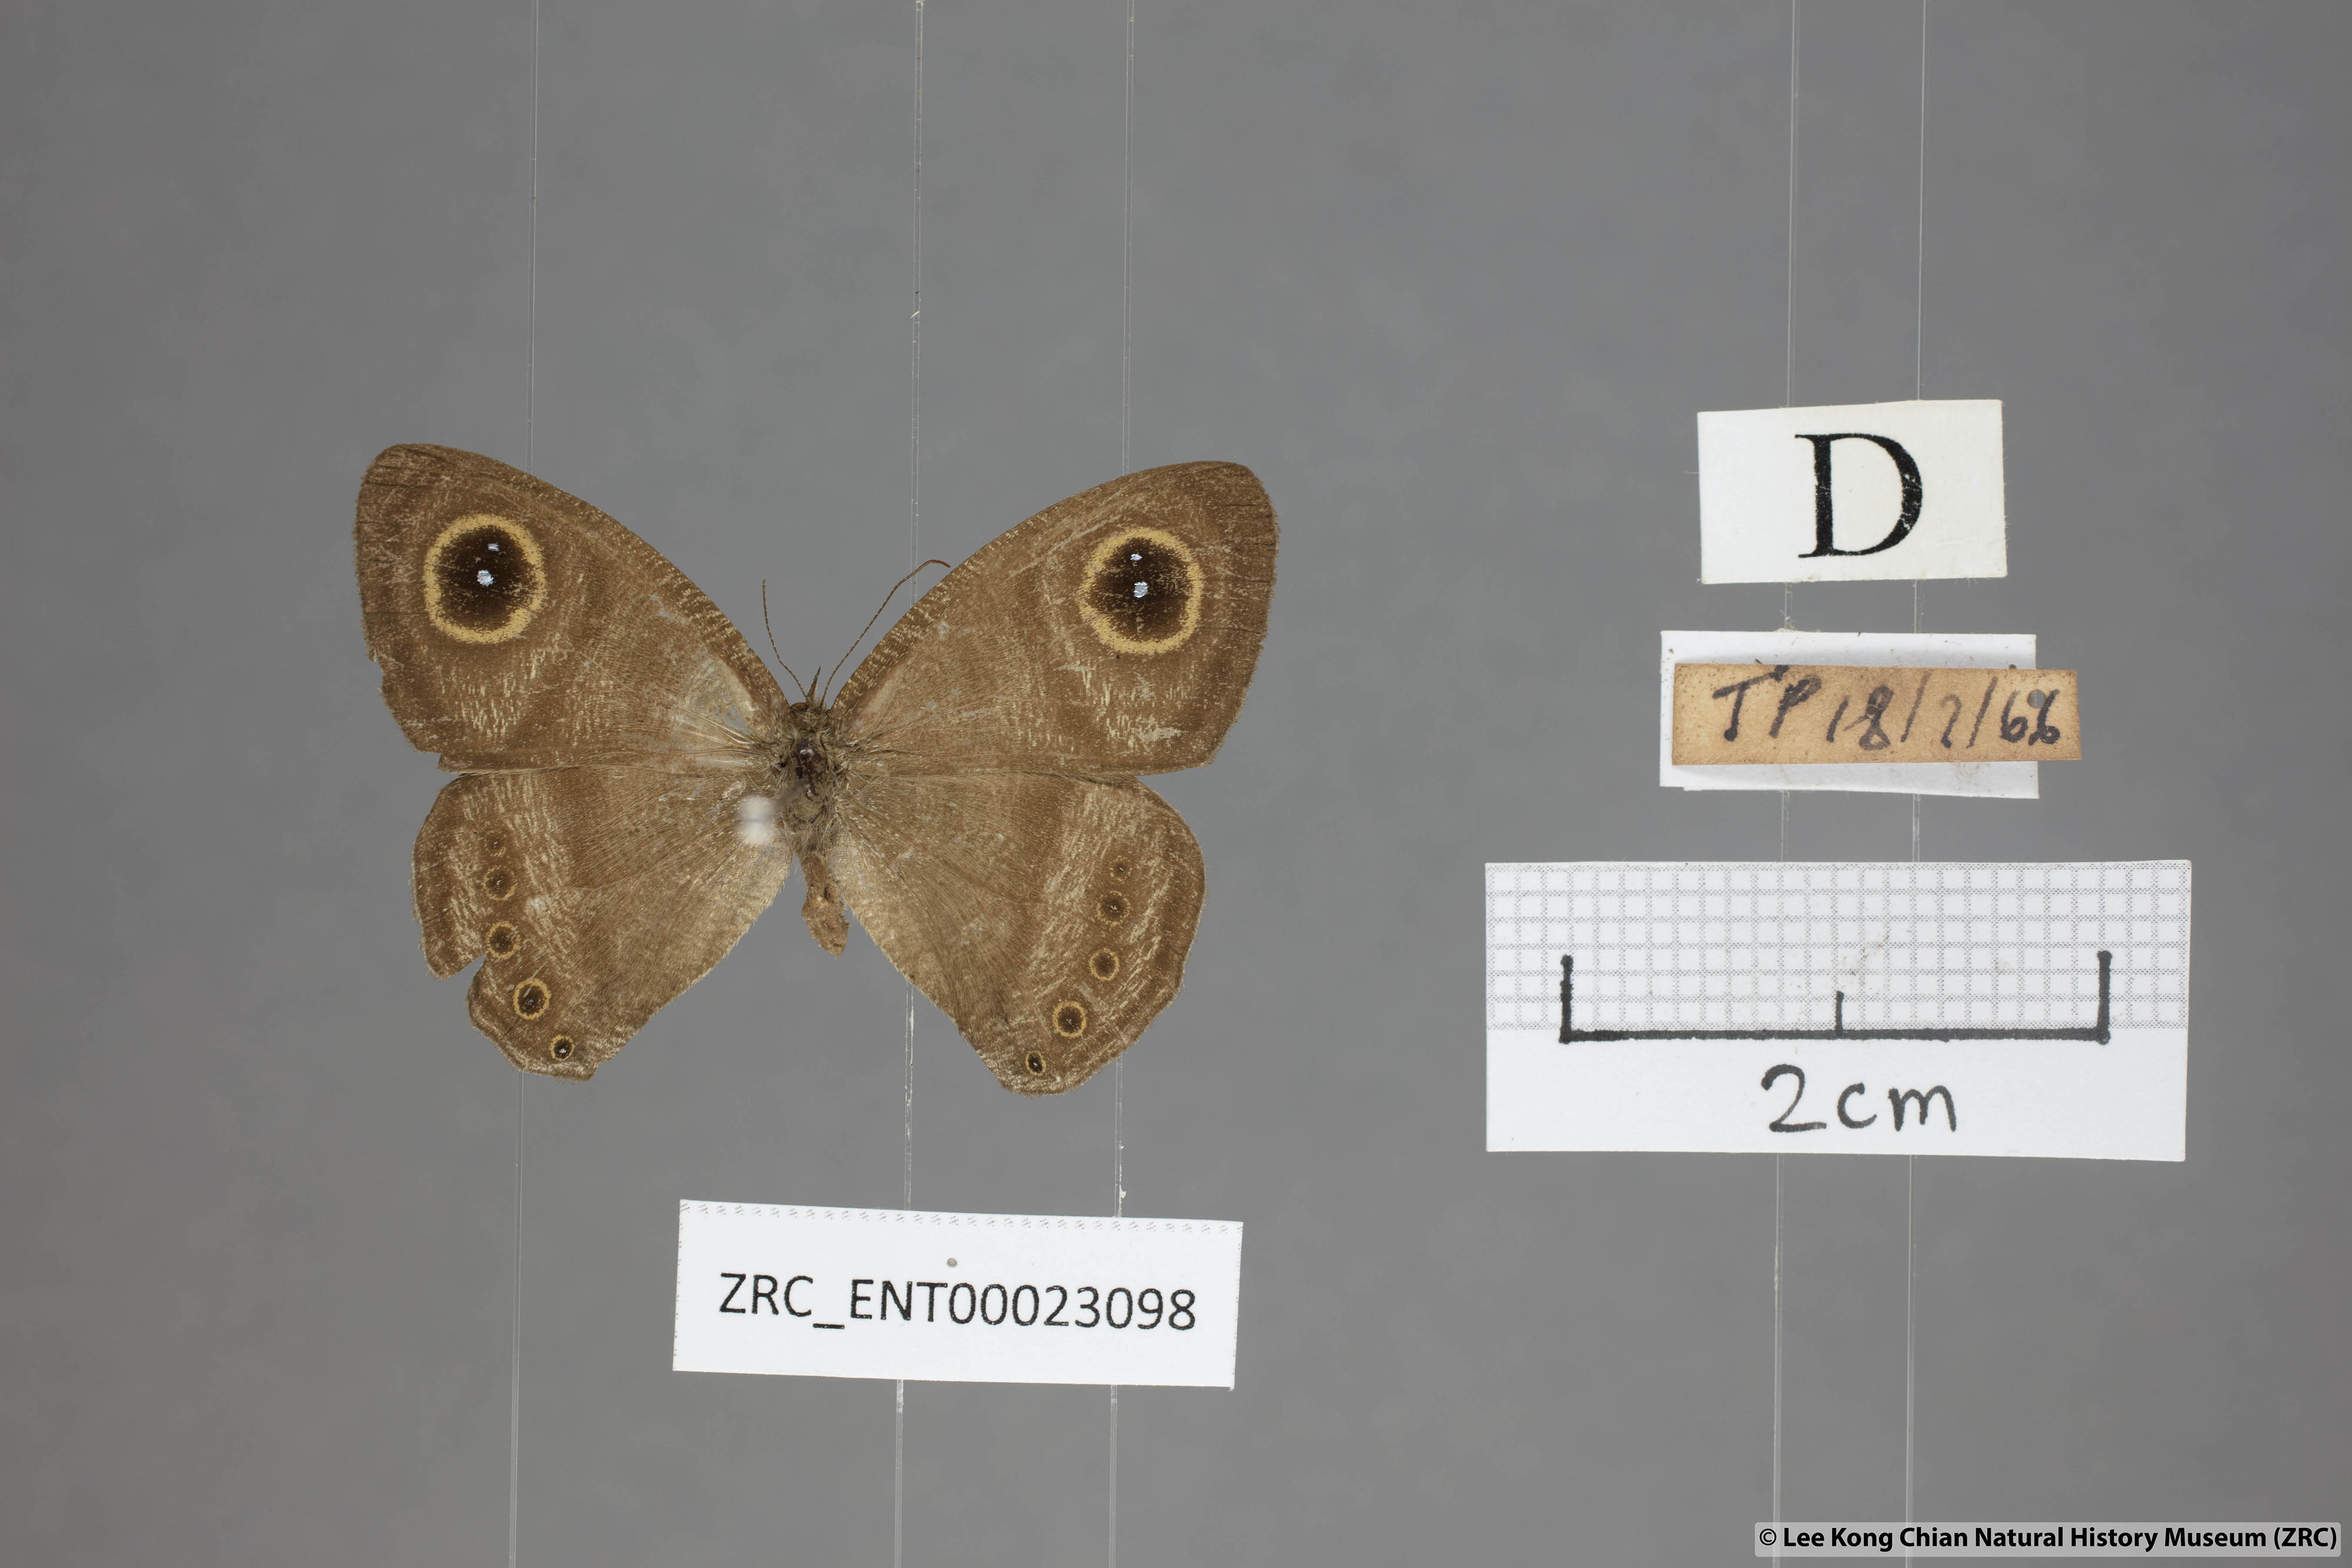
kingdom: Animalia
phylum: Arthropoda
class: Insecta
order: Lepidoptera
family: Nymphalidae
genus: Ypthima
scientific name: Ypthima fasciata
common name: Malayan six-ring
